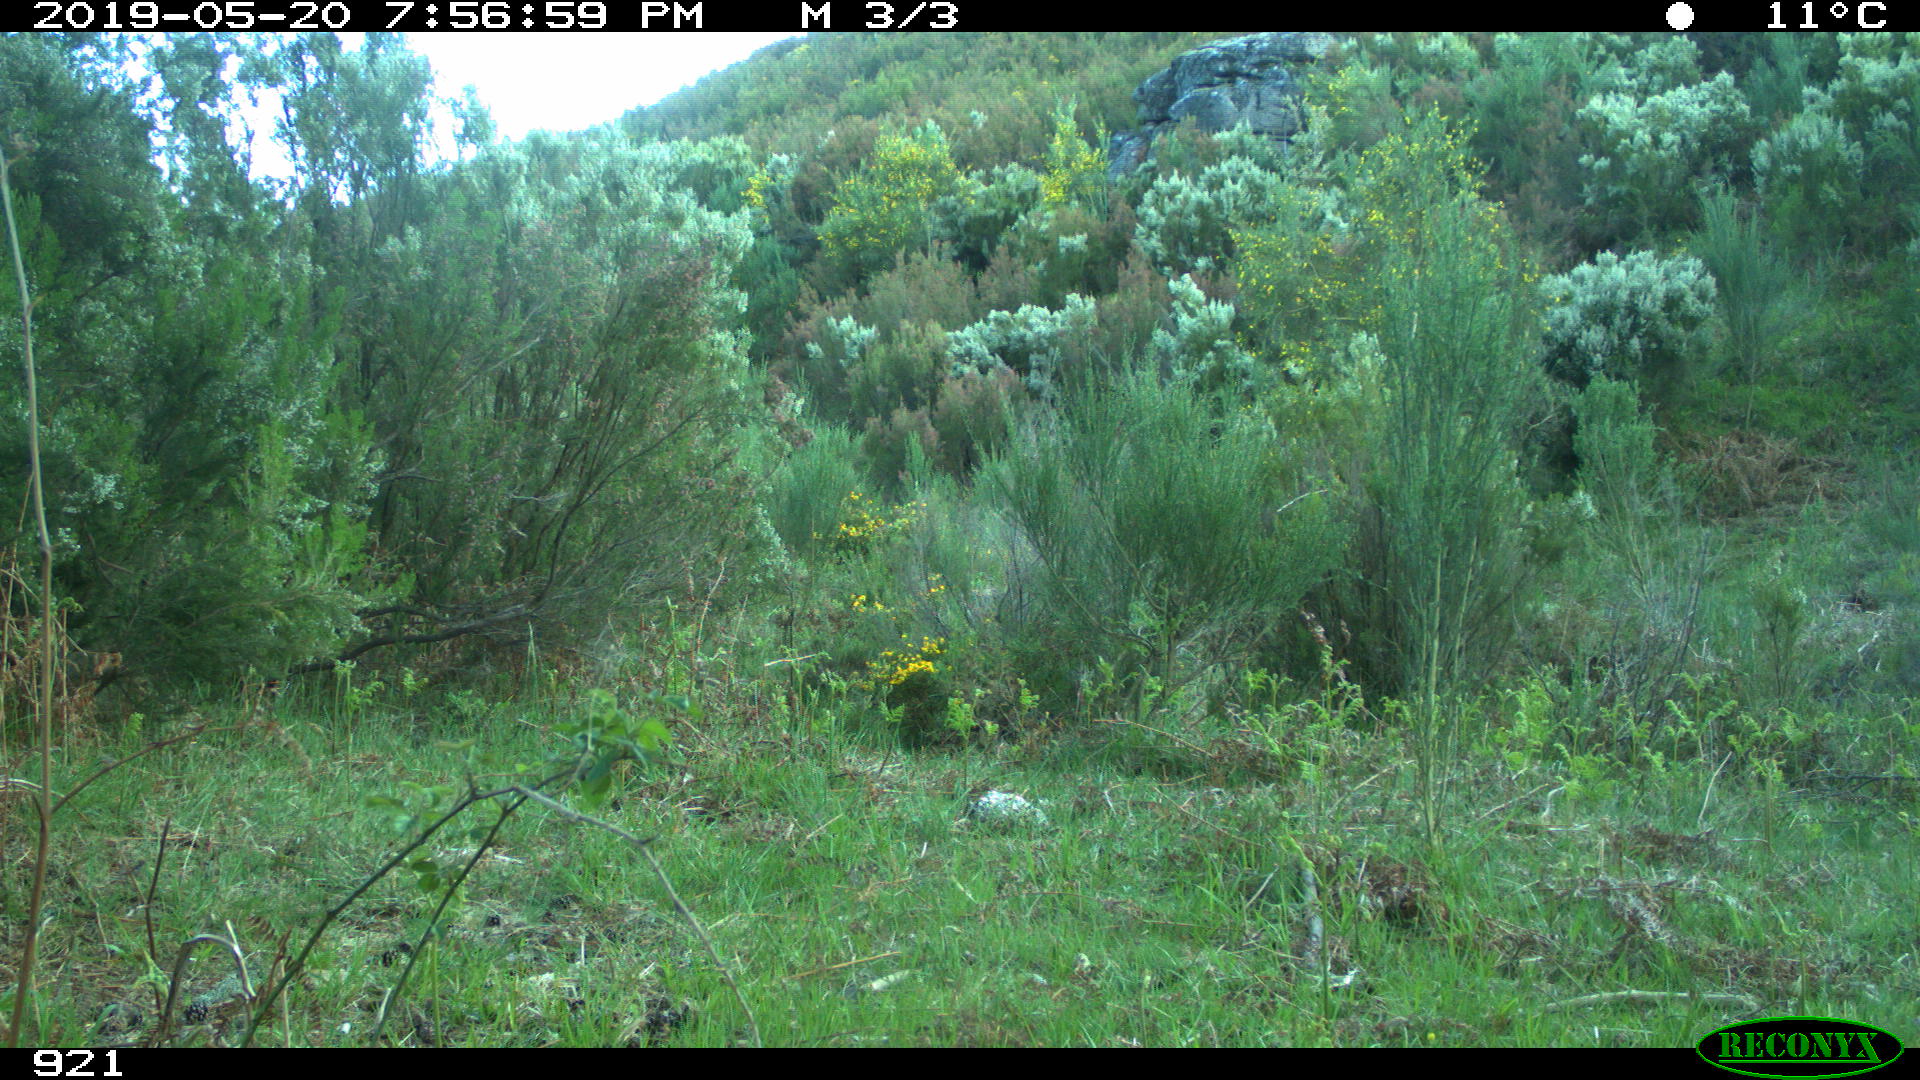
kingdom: Animalia
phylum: Chordata
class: Mammalia
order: Artiodactyla
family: Cervidae
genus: Capreolus
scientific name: Capreolus capreolus
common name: Western roe deer
